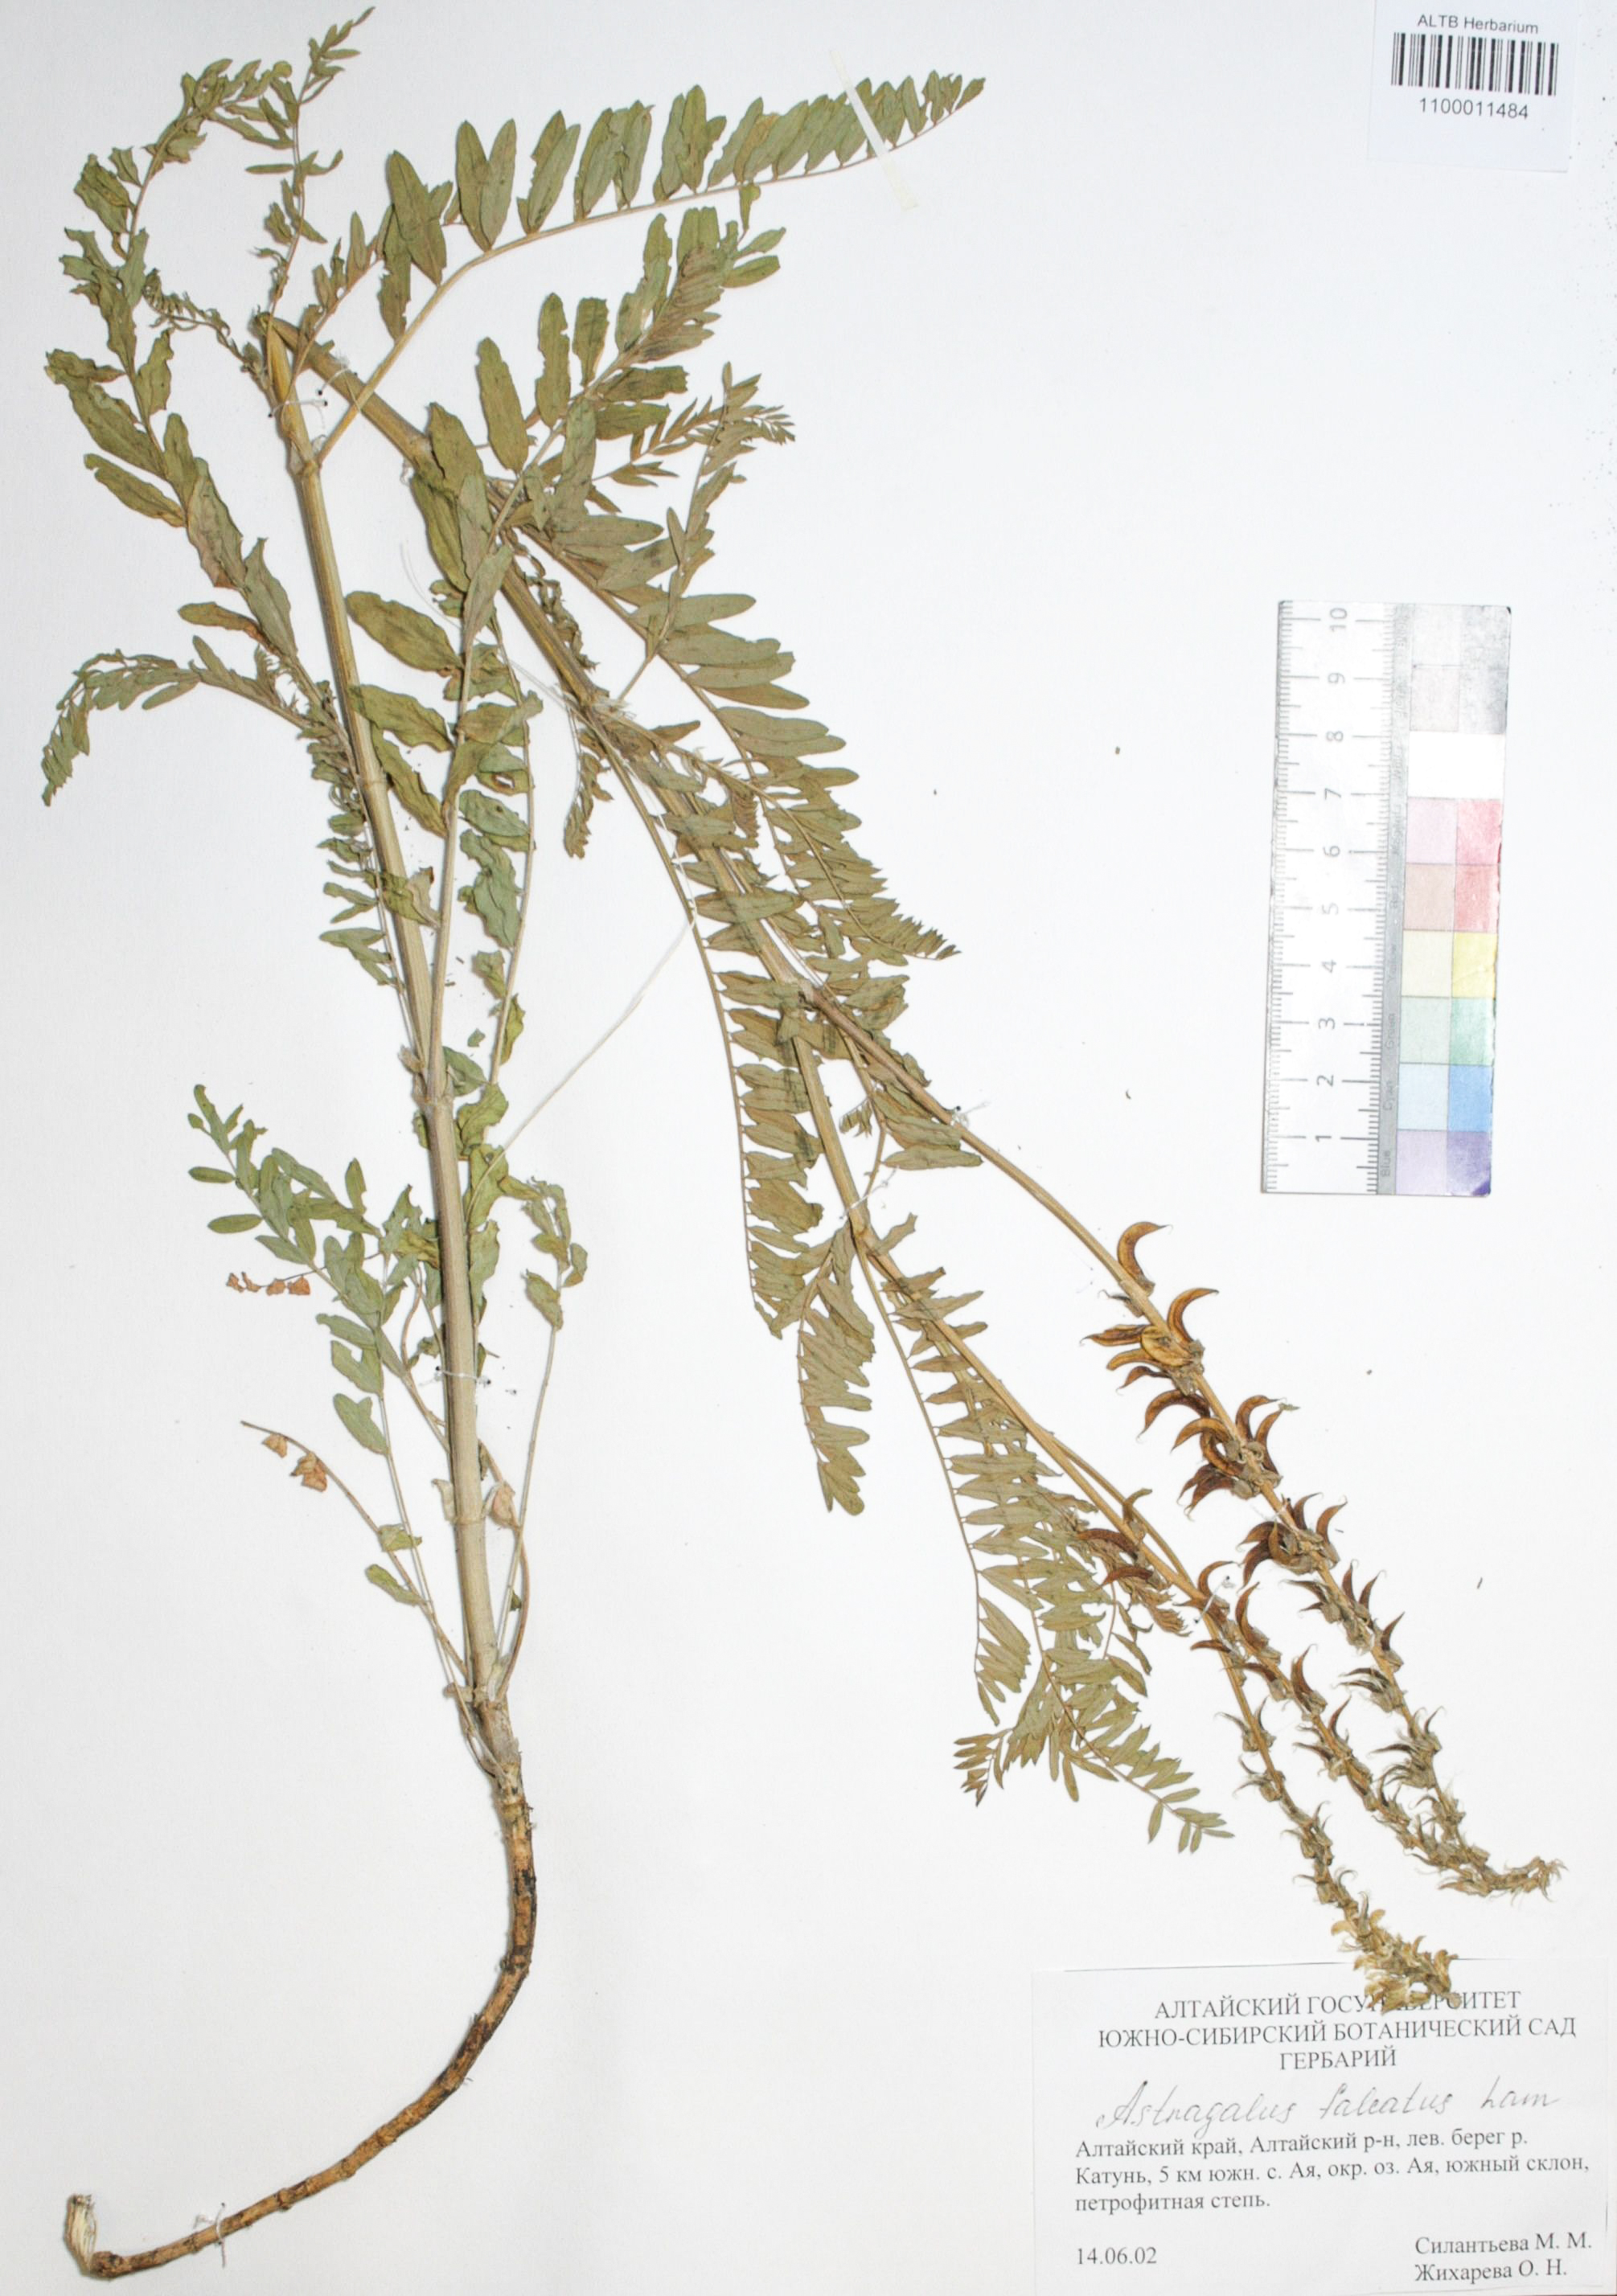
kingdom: Plantae
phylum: Tracheophyta
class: Magnoliopsida
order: Fabales
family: Fabaceae
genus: Astragalus
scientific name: Astragalus falcatus
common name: Russian sickle milk-vetch
